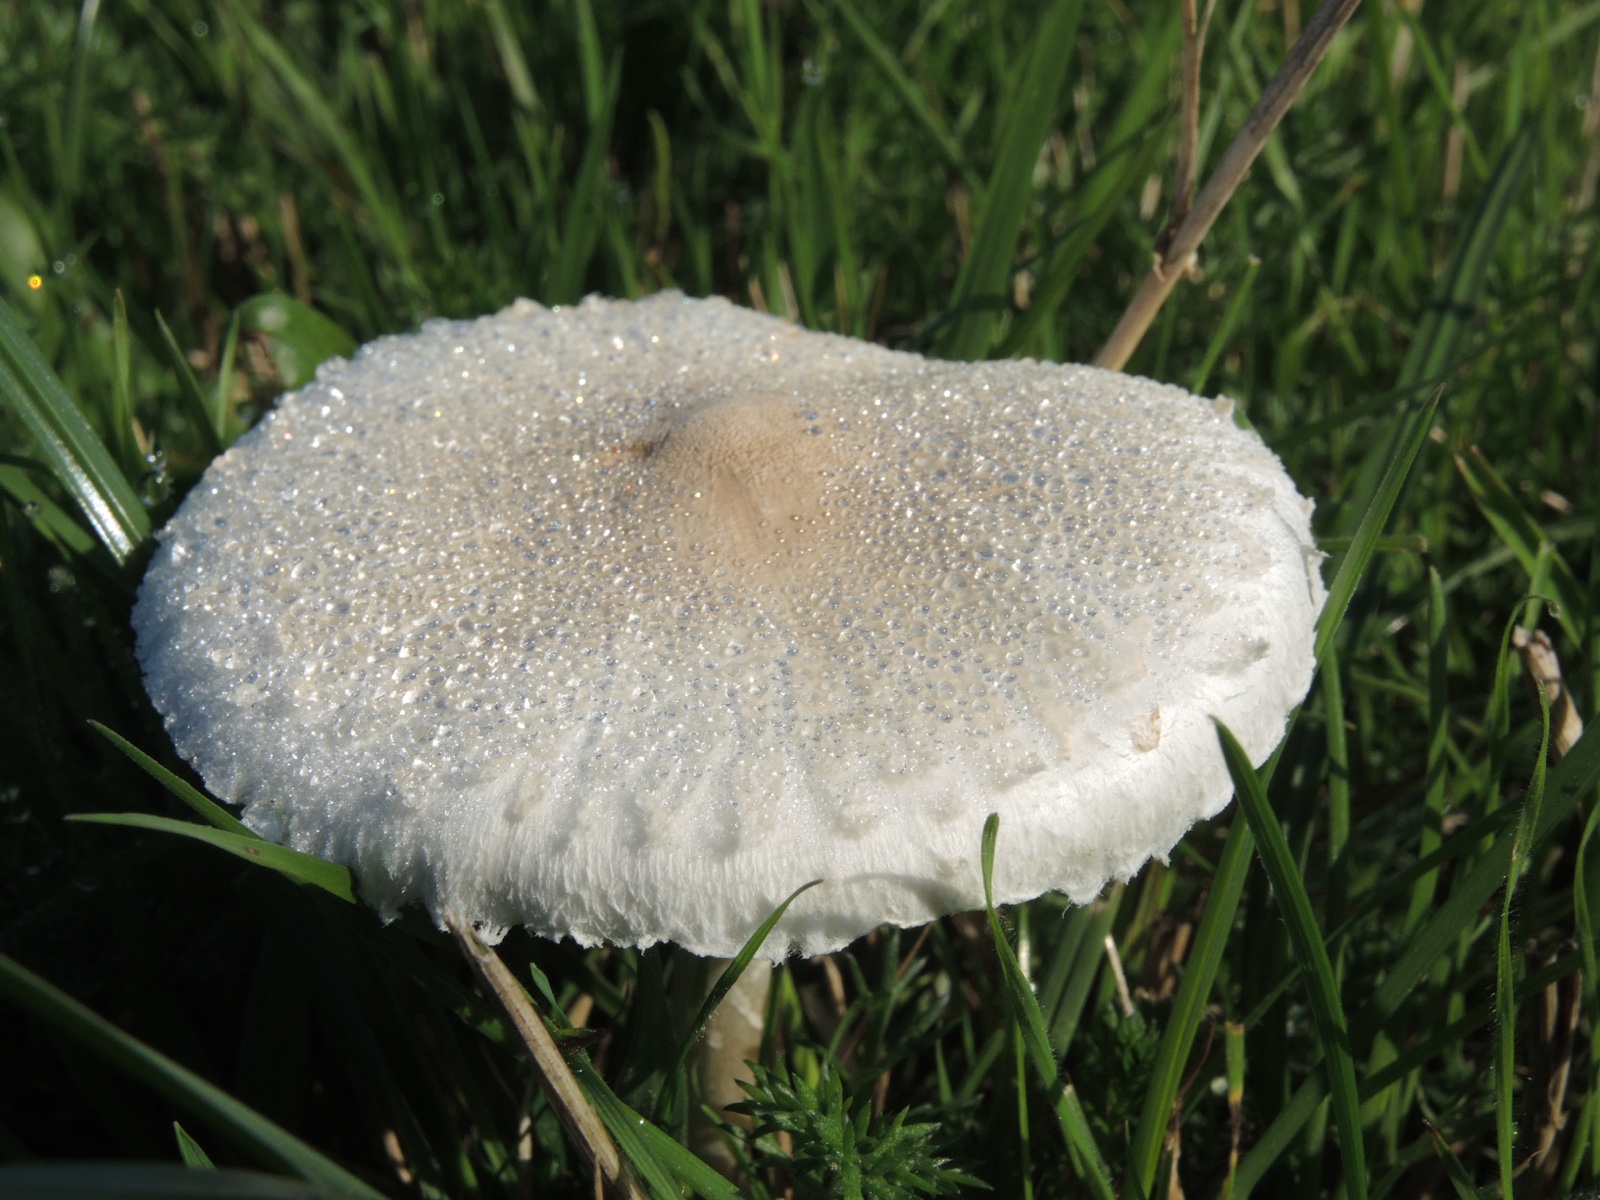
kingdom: Fungi
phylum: Basidiomycota
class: Agaricomycetes
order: Agaricales
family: Agaricaceae
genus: Macrolepiota
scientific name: Macrolepiota excoriata
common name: mark-kæmpeparasolhat
